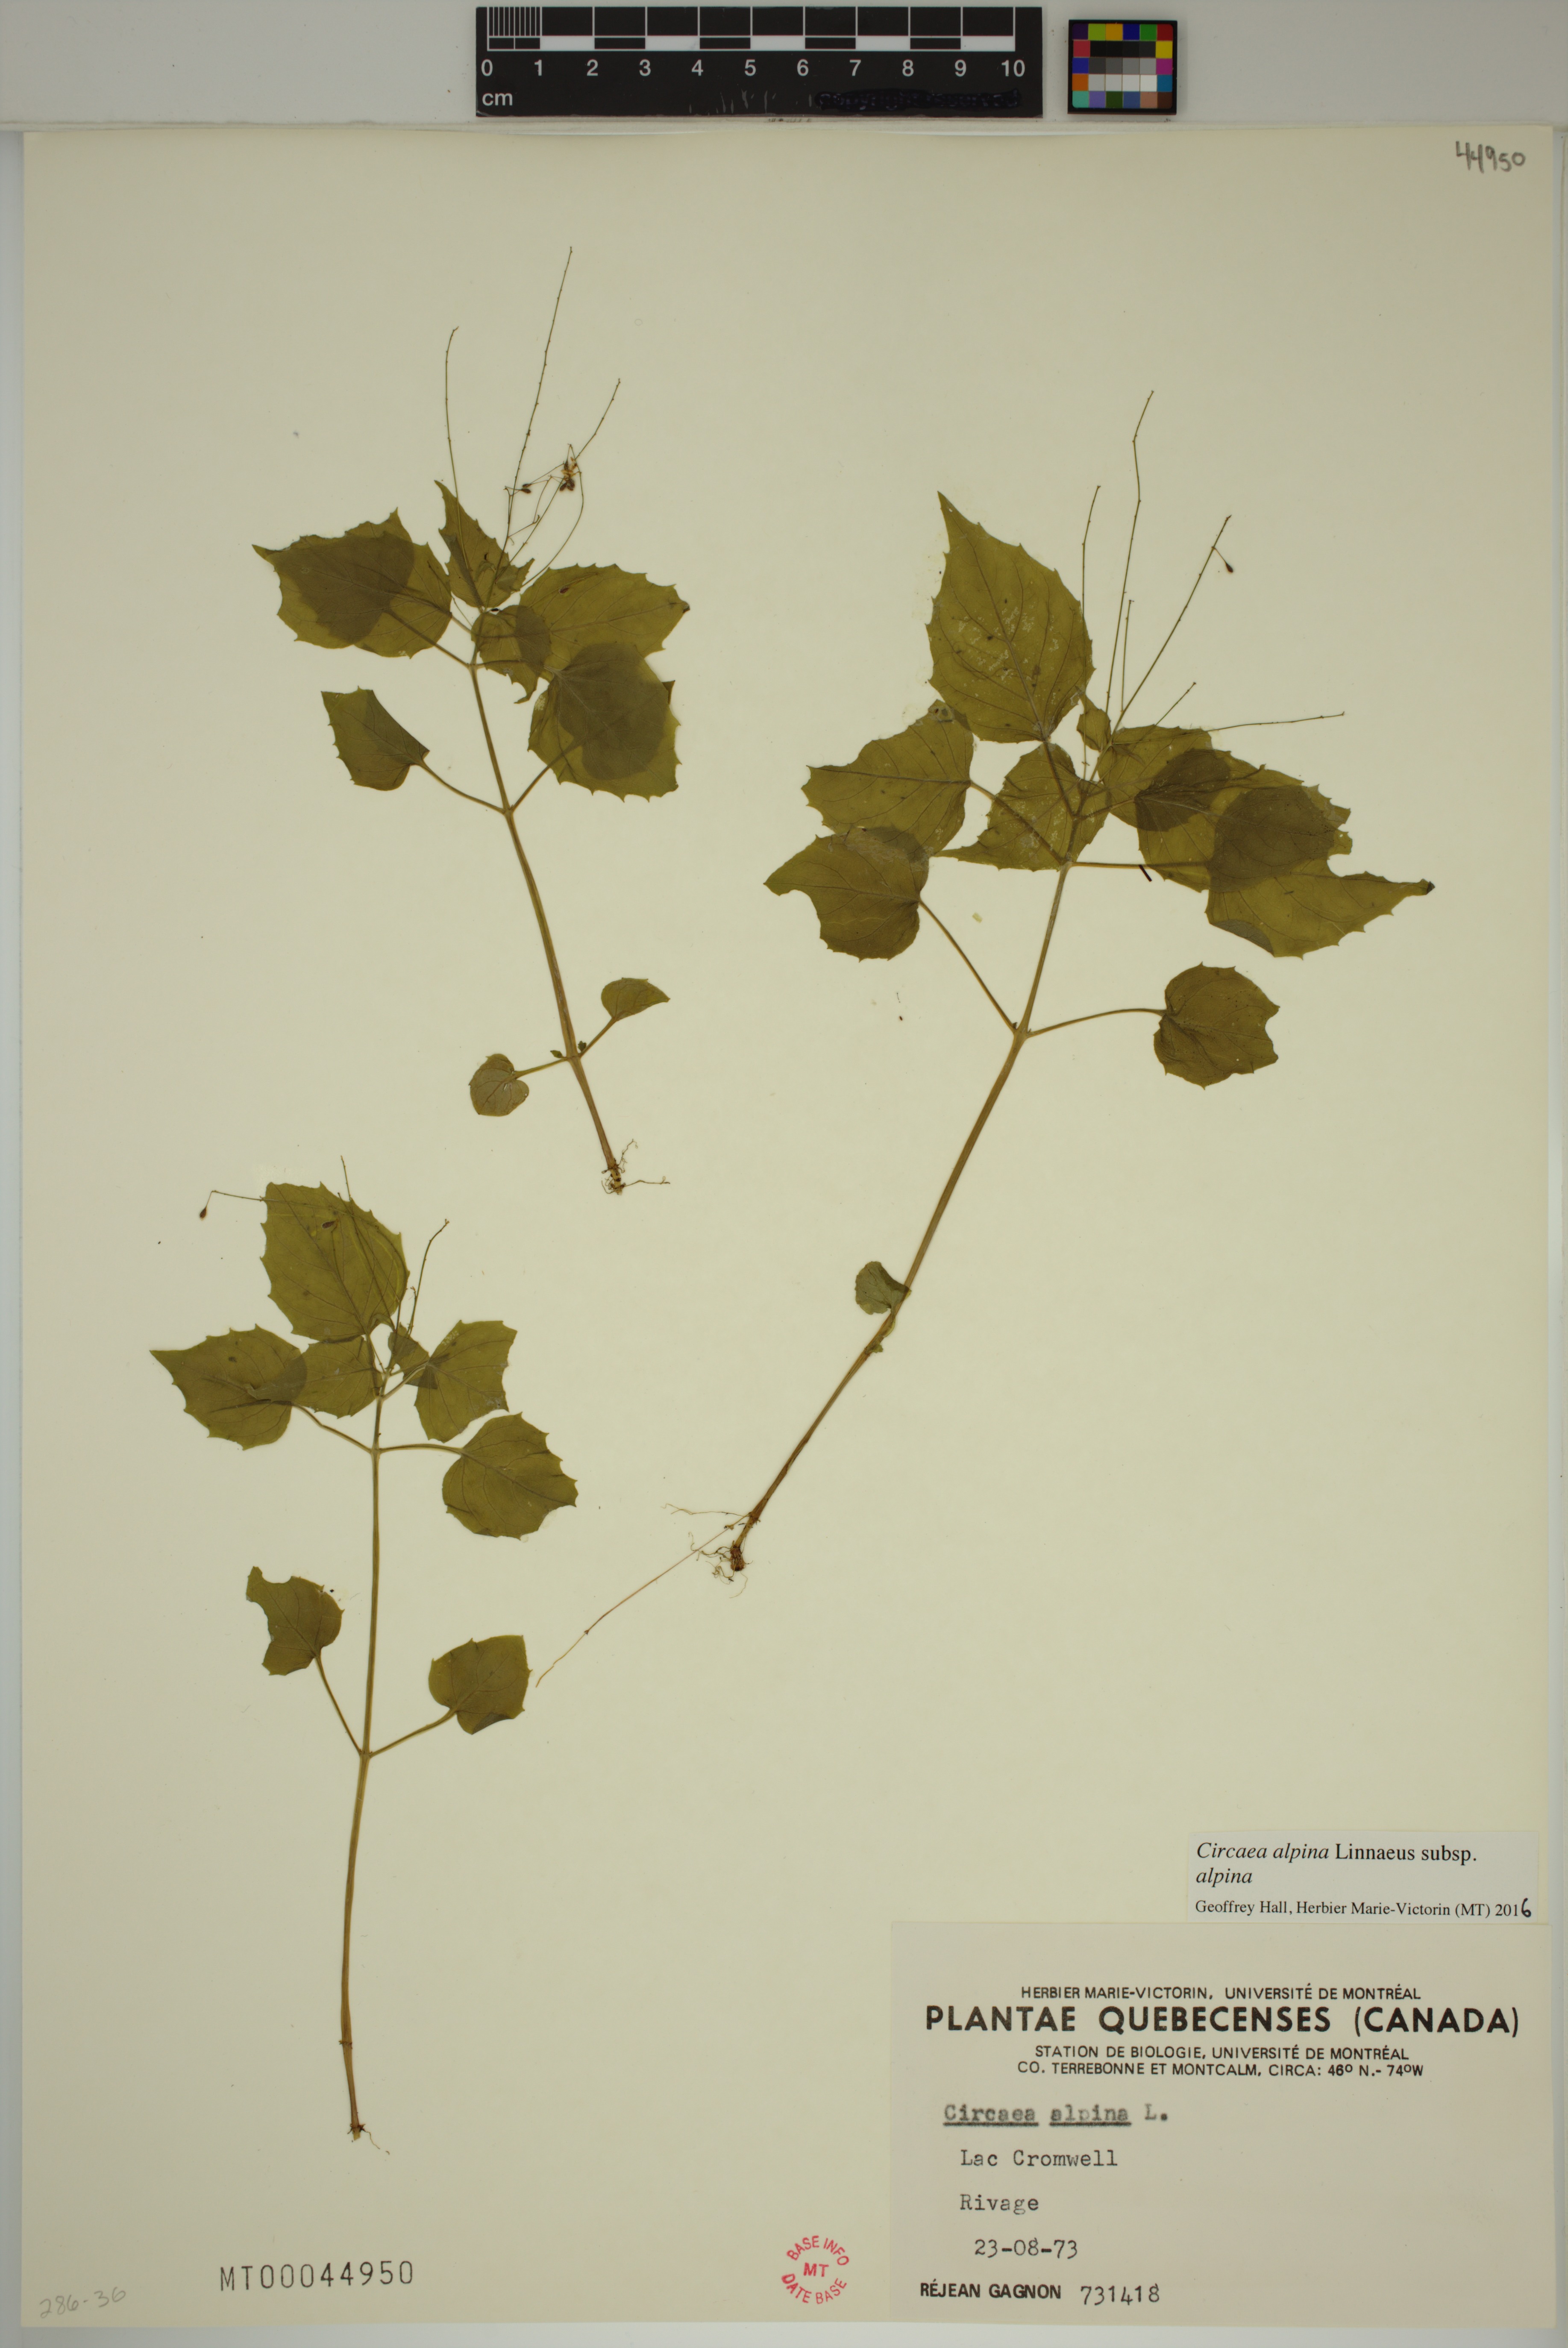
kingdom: Plantae
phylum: Tracheophyta
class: Magnoliopsida
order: Myrtales
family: Onagraceae
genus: Circaea
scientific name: Circaea alpina
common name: Alpine enchanter's-nightshade
